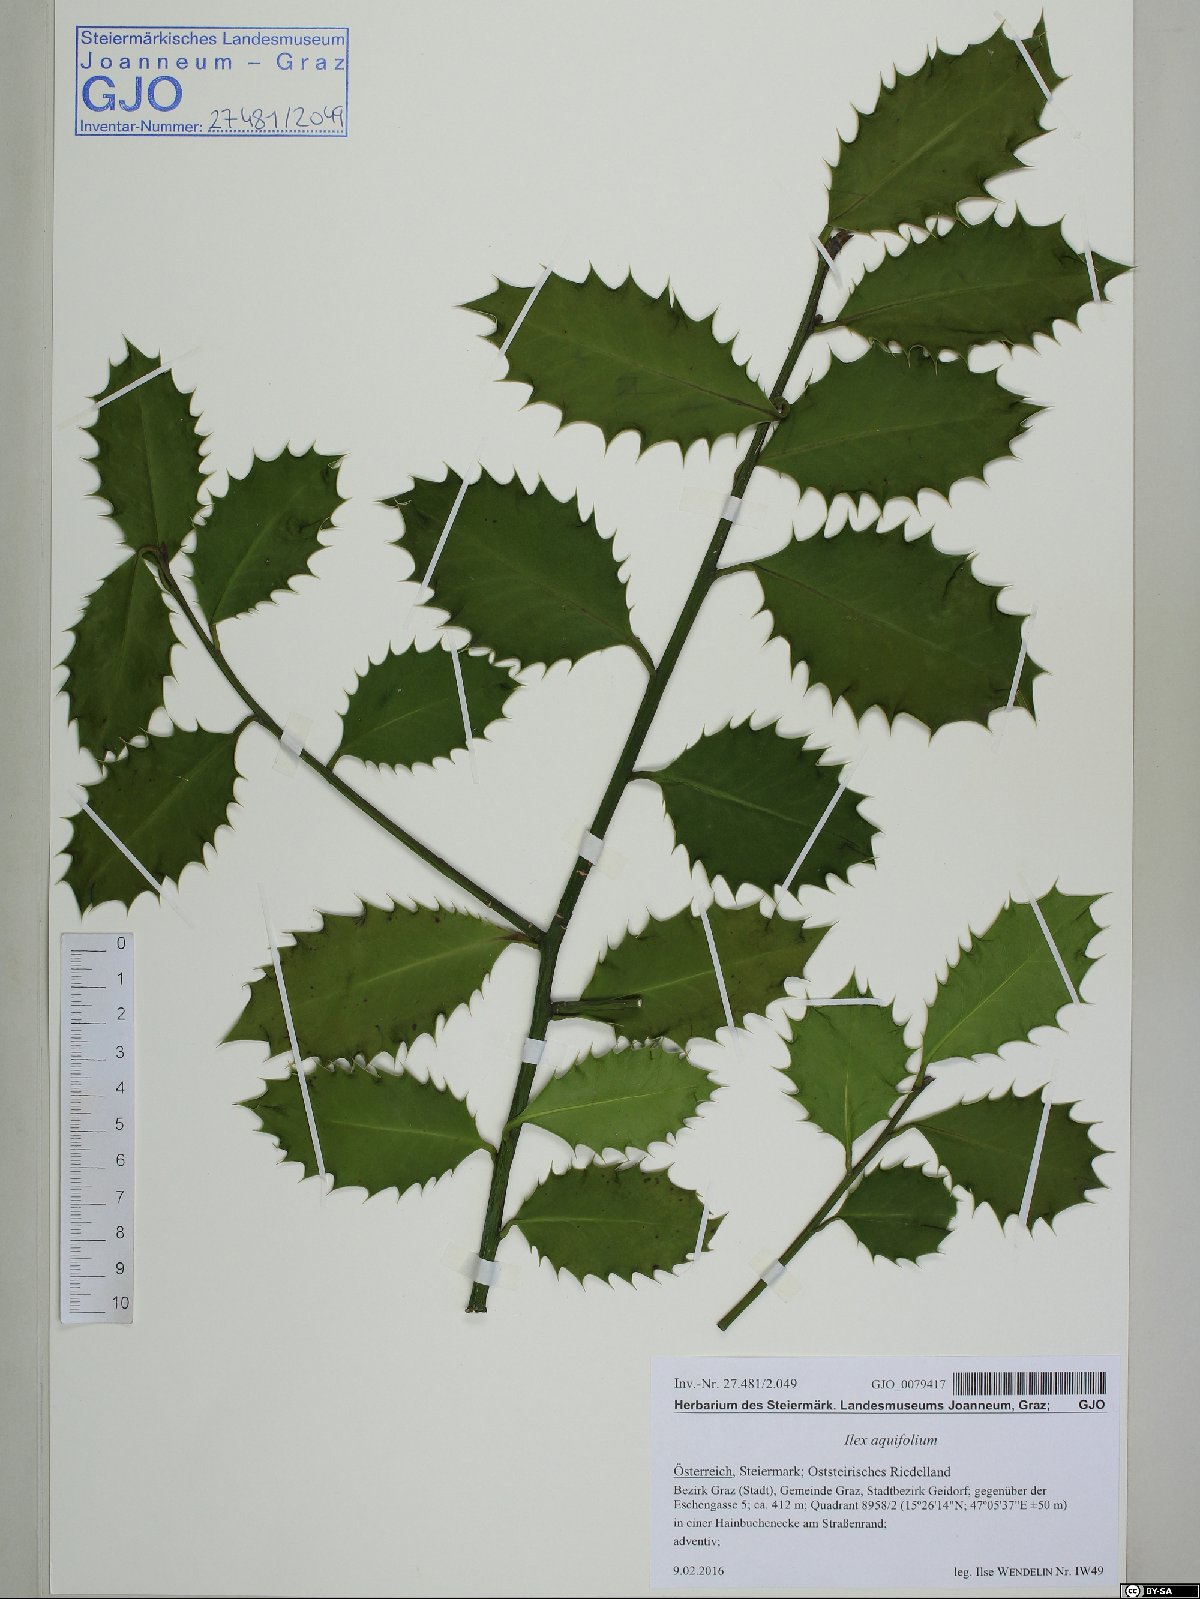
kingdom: Plantae
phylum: Tracheophyta
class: Magnoliopsida
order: Aquifoliales
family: Aquifoliaceae
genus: Ilex
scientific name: Ilex aquifolium
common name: English holly
